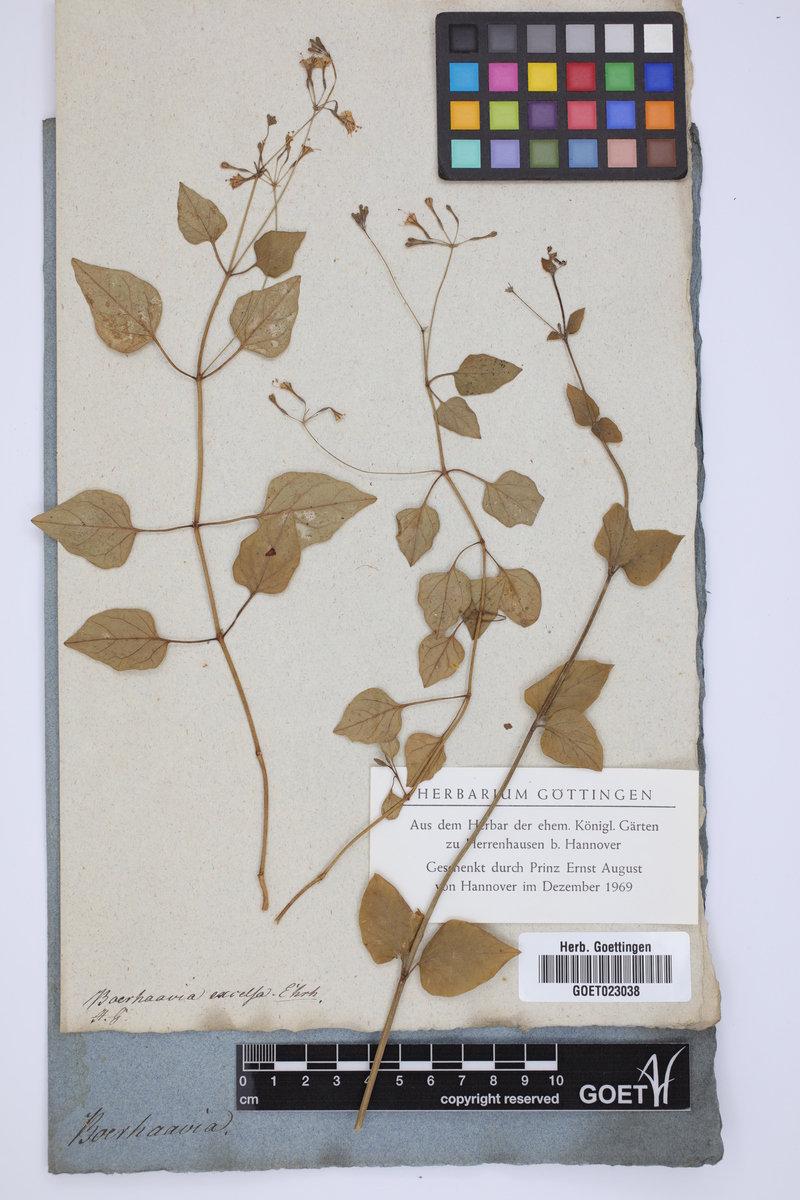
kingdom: Plantae
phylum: Tracheophyta
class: Magnoliopsida
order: Caryophyllales
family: Nyctaginaceae
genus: Commicarpus
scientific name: Commicarpus tuberosus
